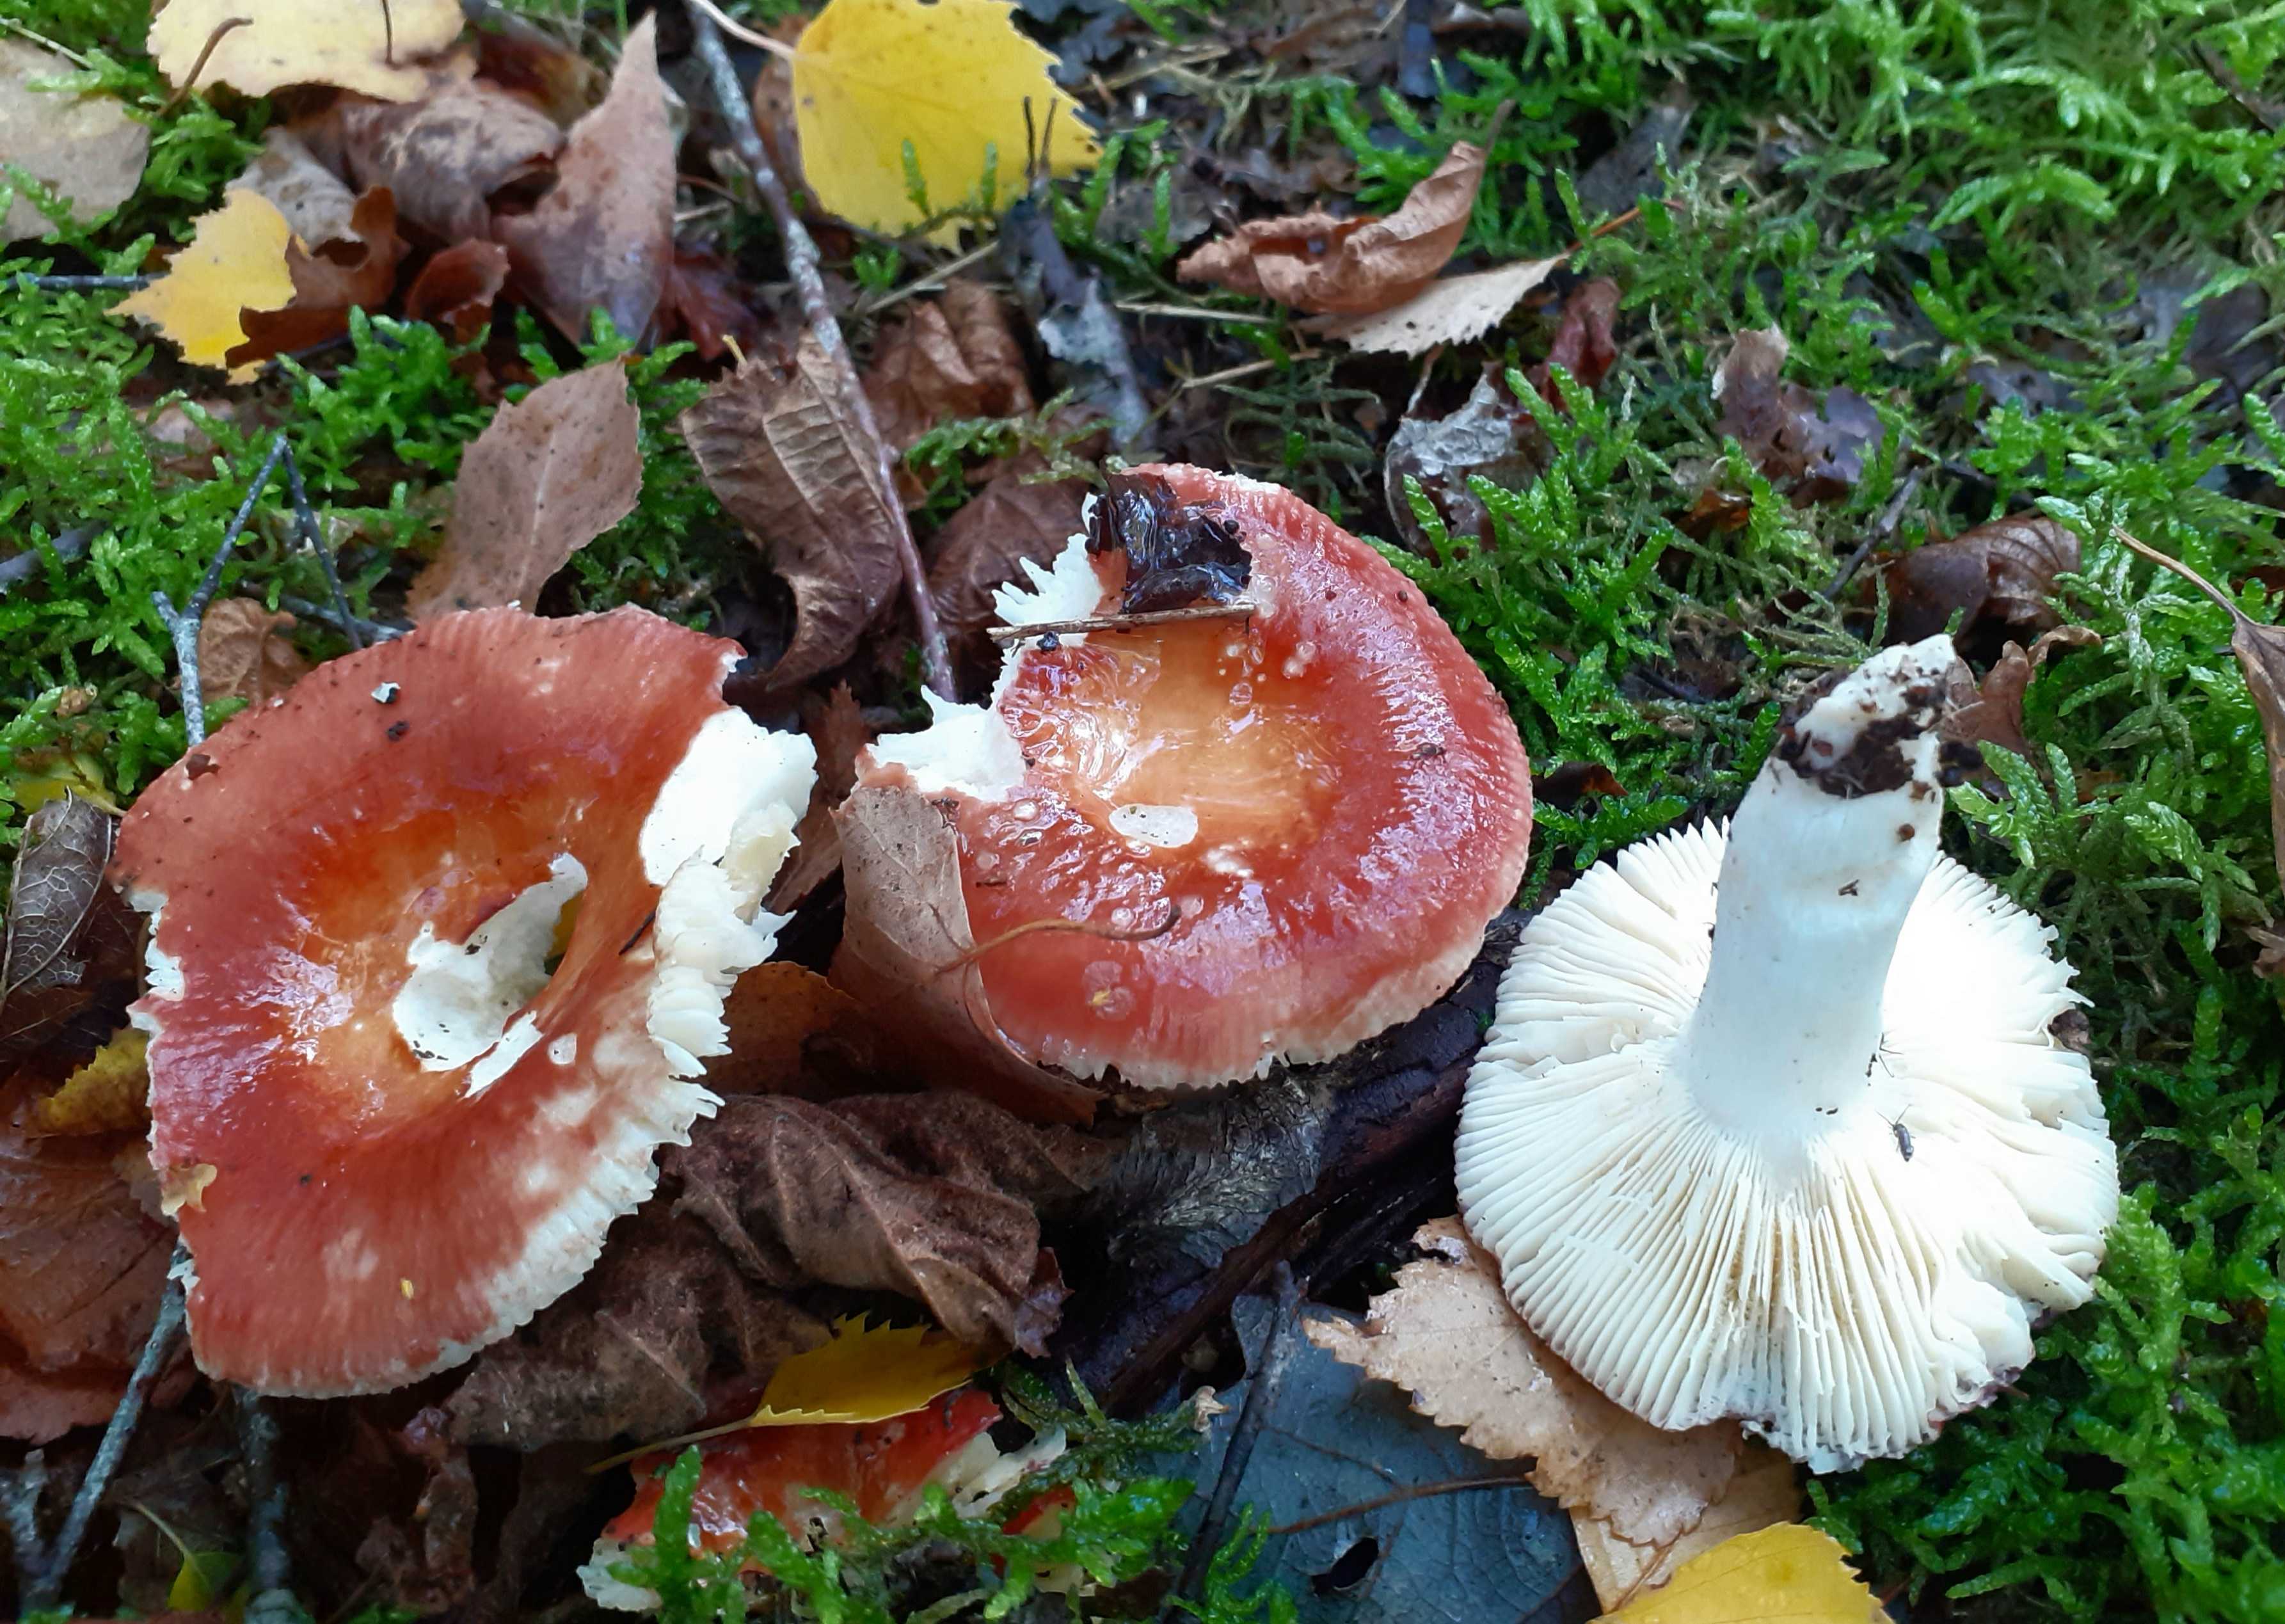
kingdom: Fungi
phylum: Basidiomycota
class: Agaricomycetes
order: Russulales
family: Russulaceae
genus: Russula
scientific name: Russula velenovskyi
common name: orangerød skørhat
